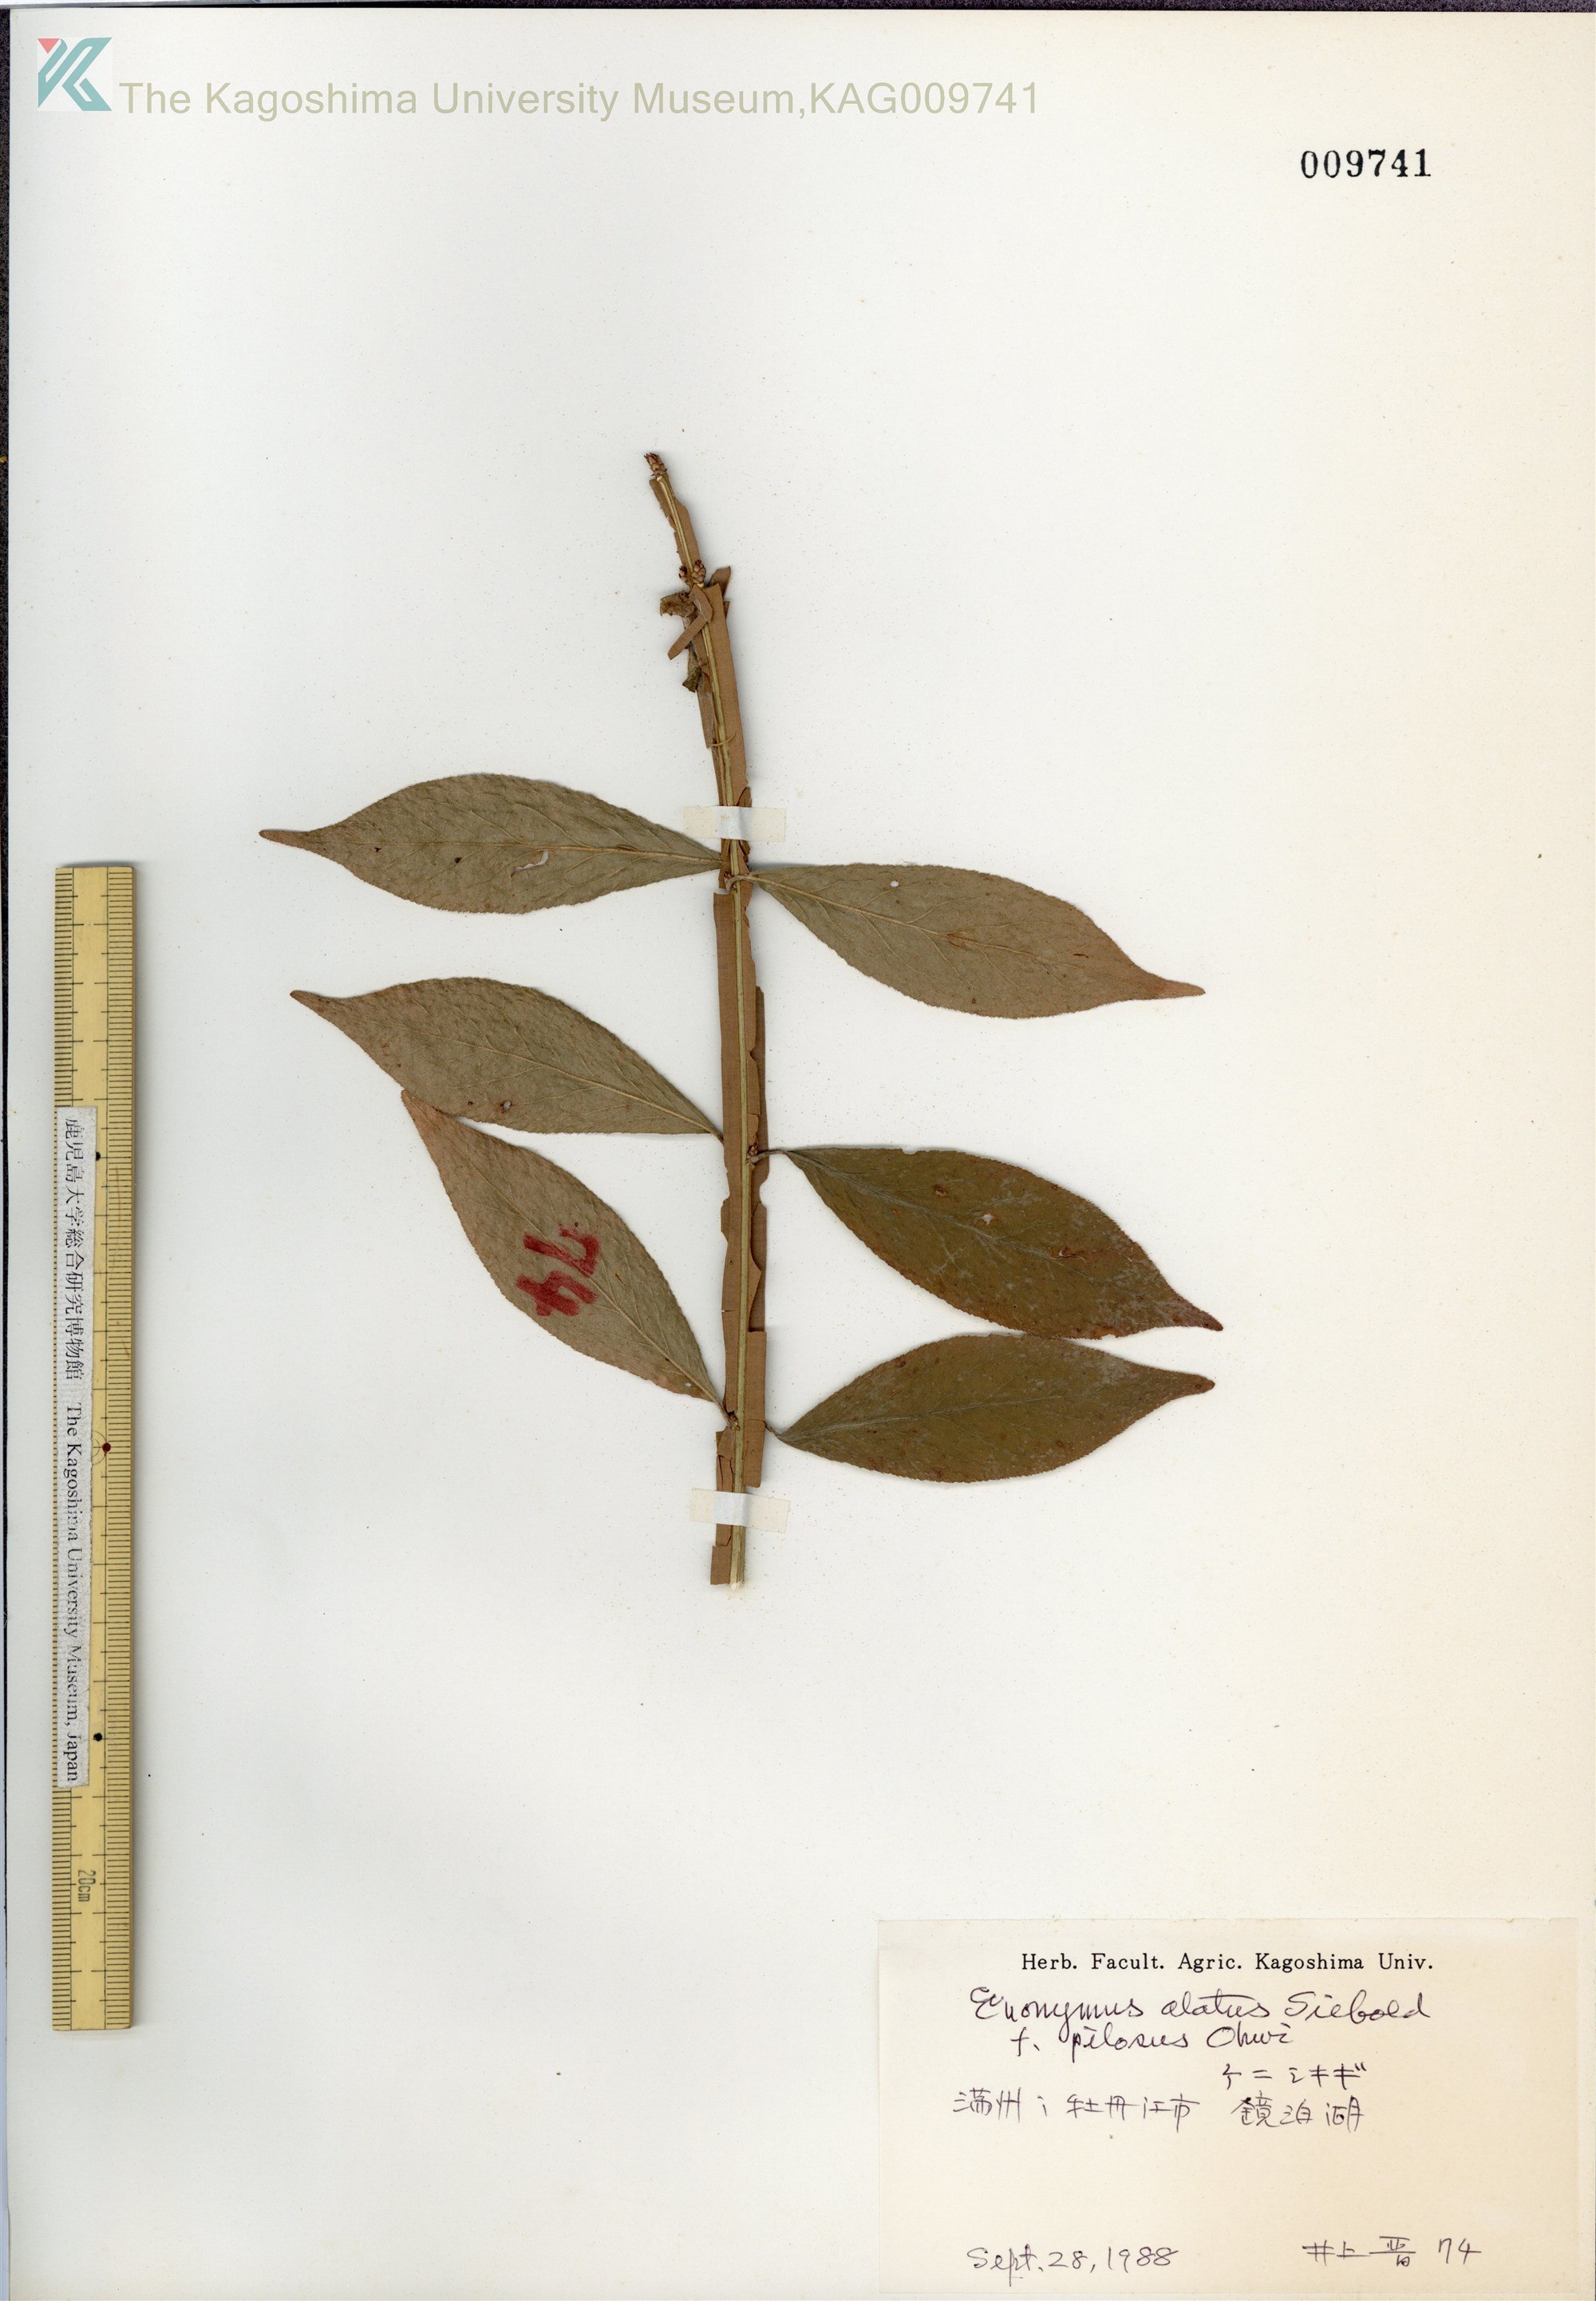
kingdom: Plantae
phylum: Tracheophyta
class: Magnoliopsida
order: Celastrales
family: Celastraceae
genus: Euonymus
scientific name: Euonymus alatus
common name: Winged euonymus
